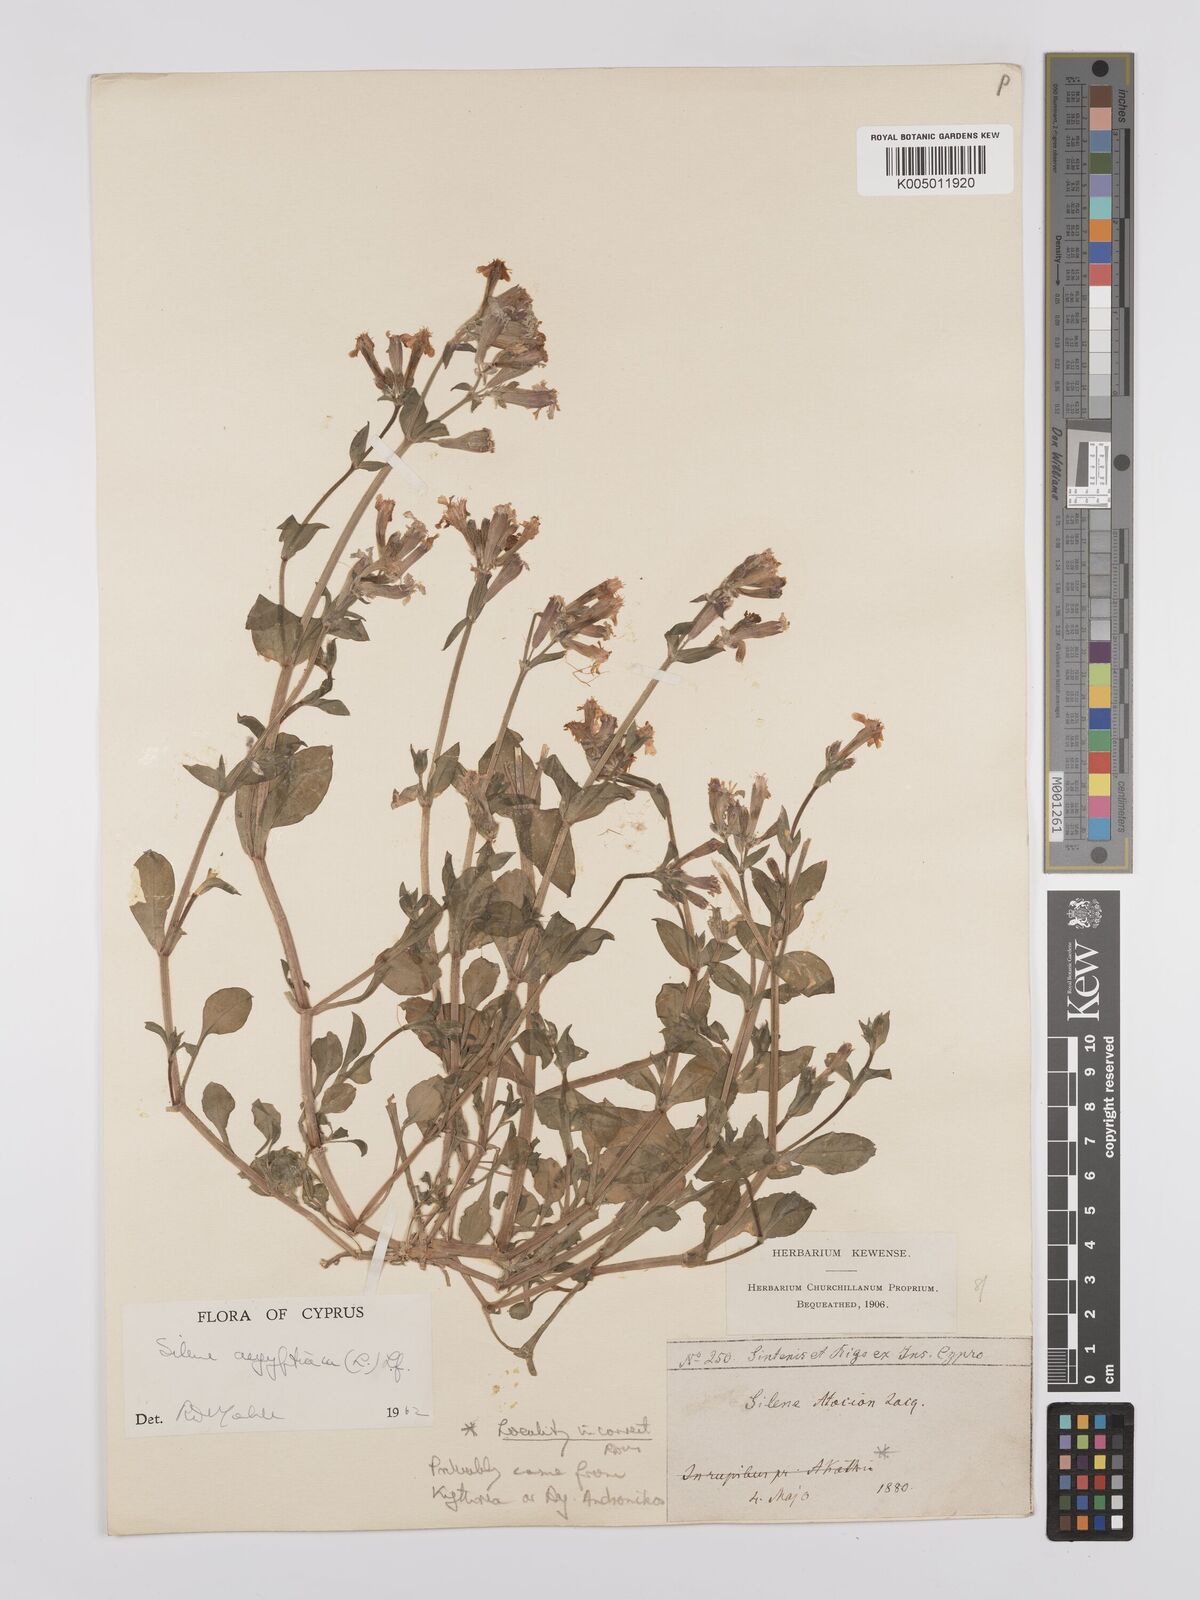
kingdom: Plantae
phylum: Tracheophyta
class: Magnoliopsida
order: Caryophyllales
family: Caryophyllaceae
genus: Silene
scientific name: Silene aegyptiaca
